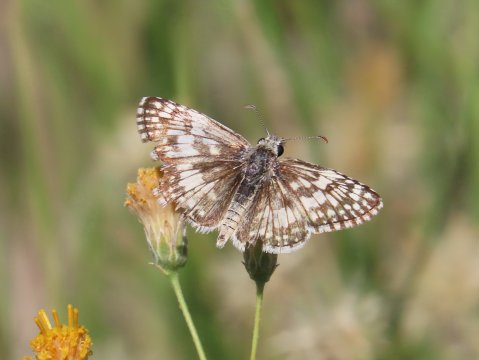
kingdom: Animalia
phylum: Arthropoda
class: Insecta
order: Lepidoptera
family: Hesperiidae
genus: Pyrgus
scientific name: Pyrgus communis
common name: Common Checkered-Skipper
